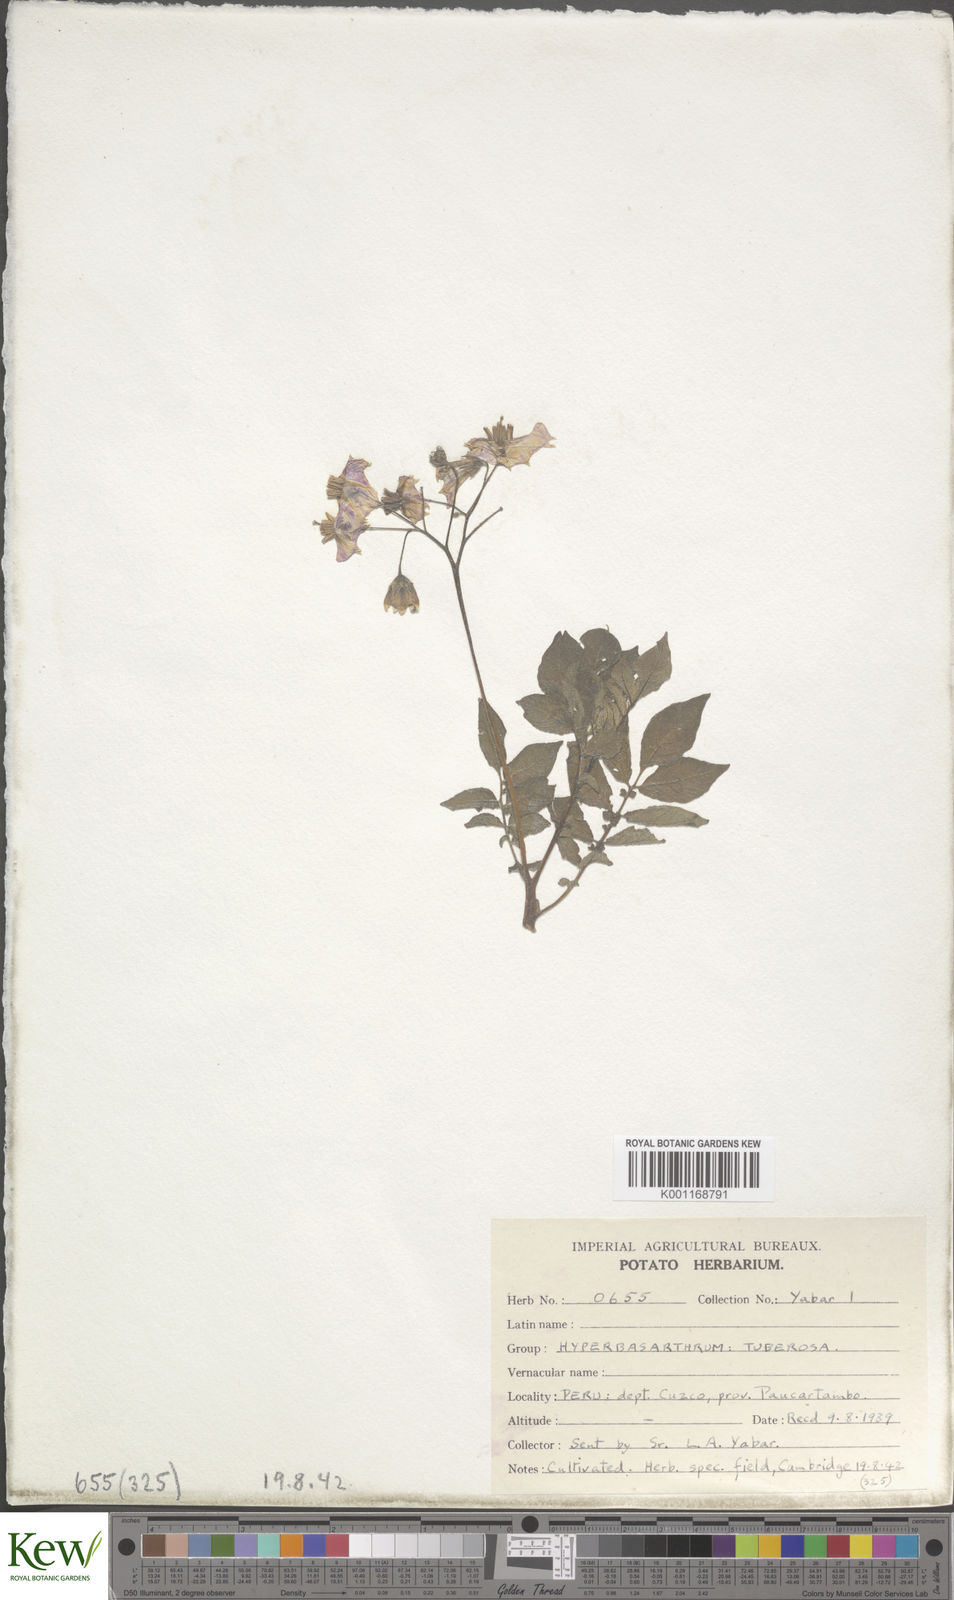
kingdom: Plantae
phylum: Tracheophyta
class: Magnoliopsida
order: Solanales
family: Solanaceae
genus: Solanum
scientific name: Solanum chaucha
